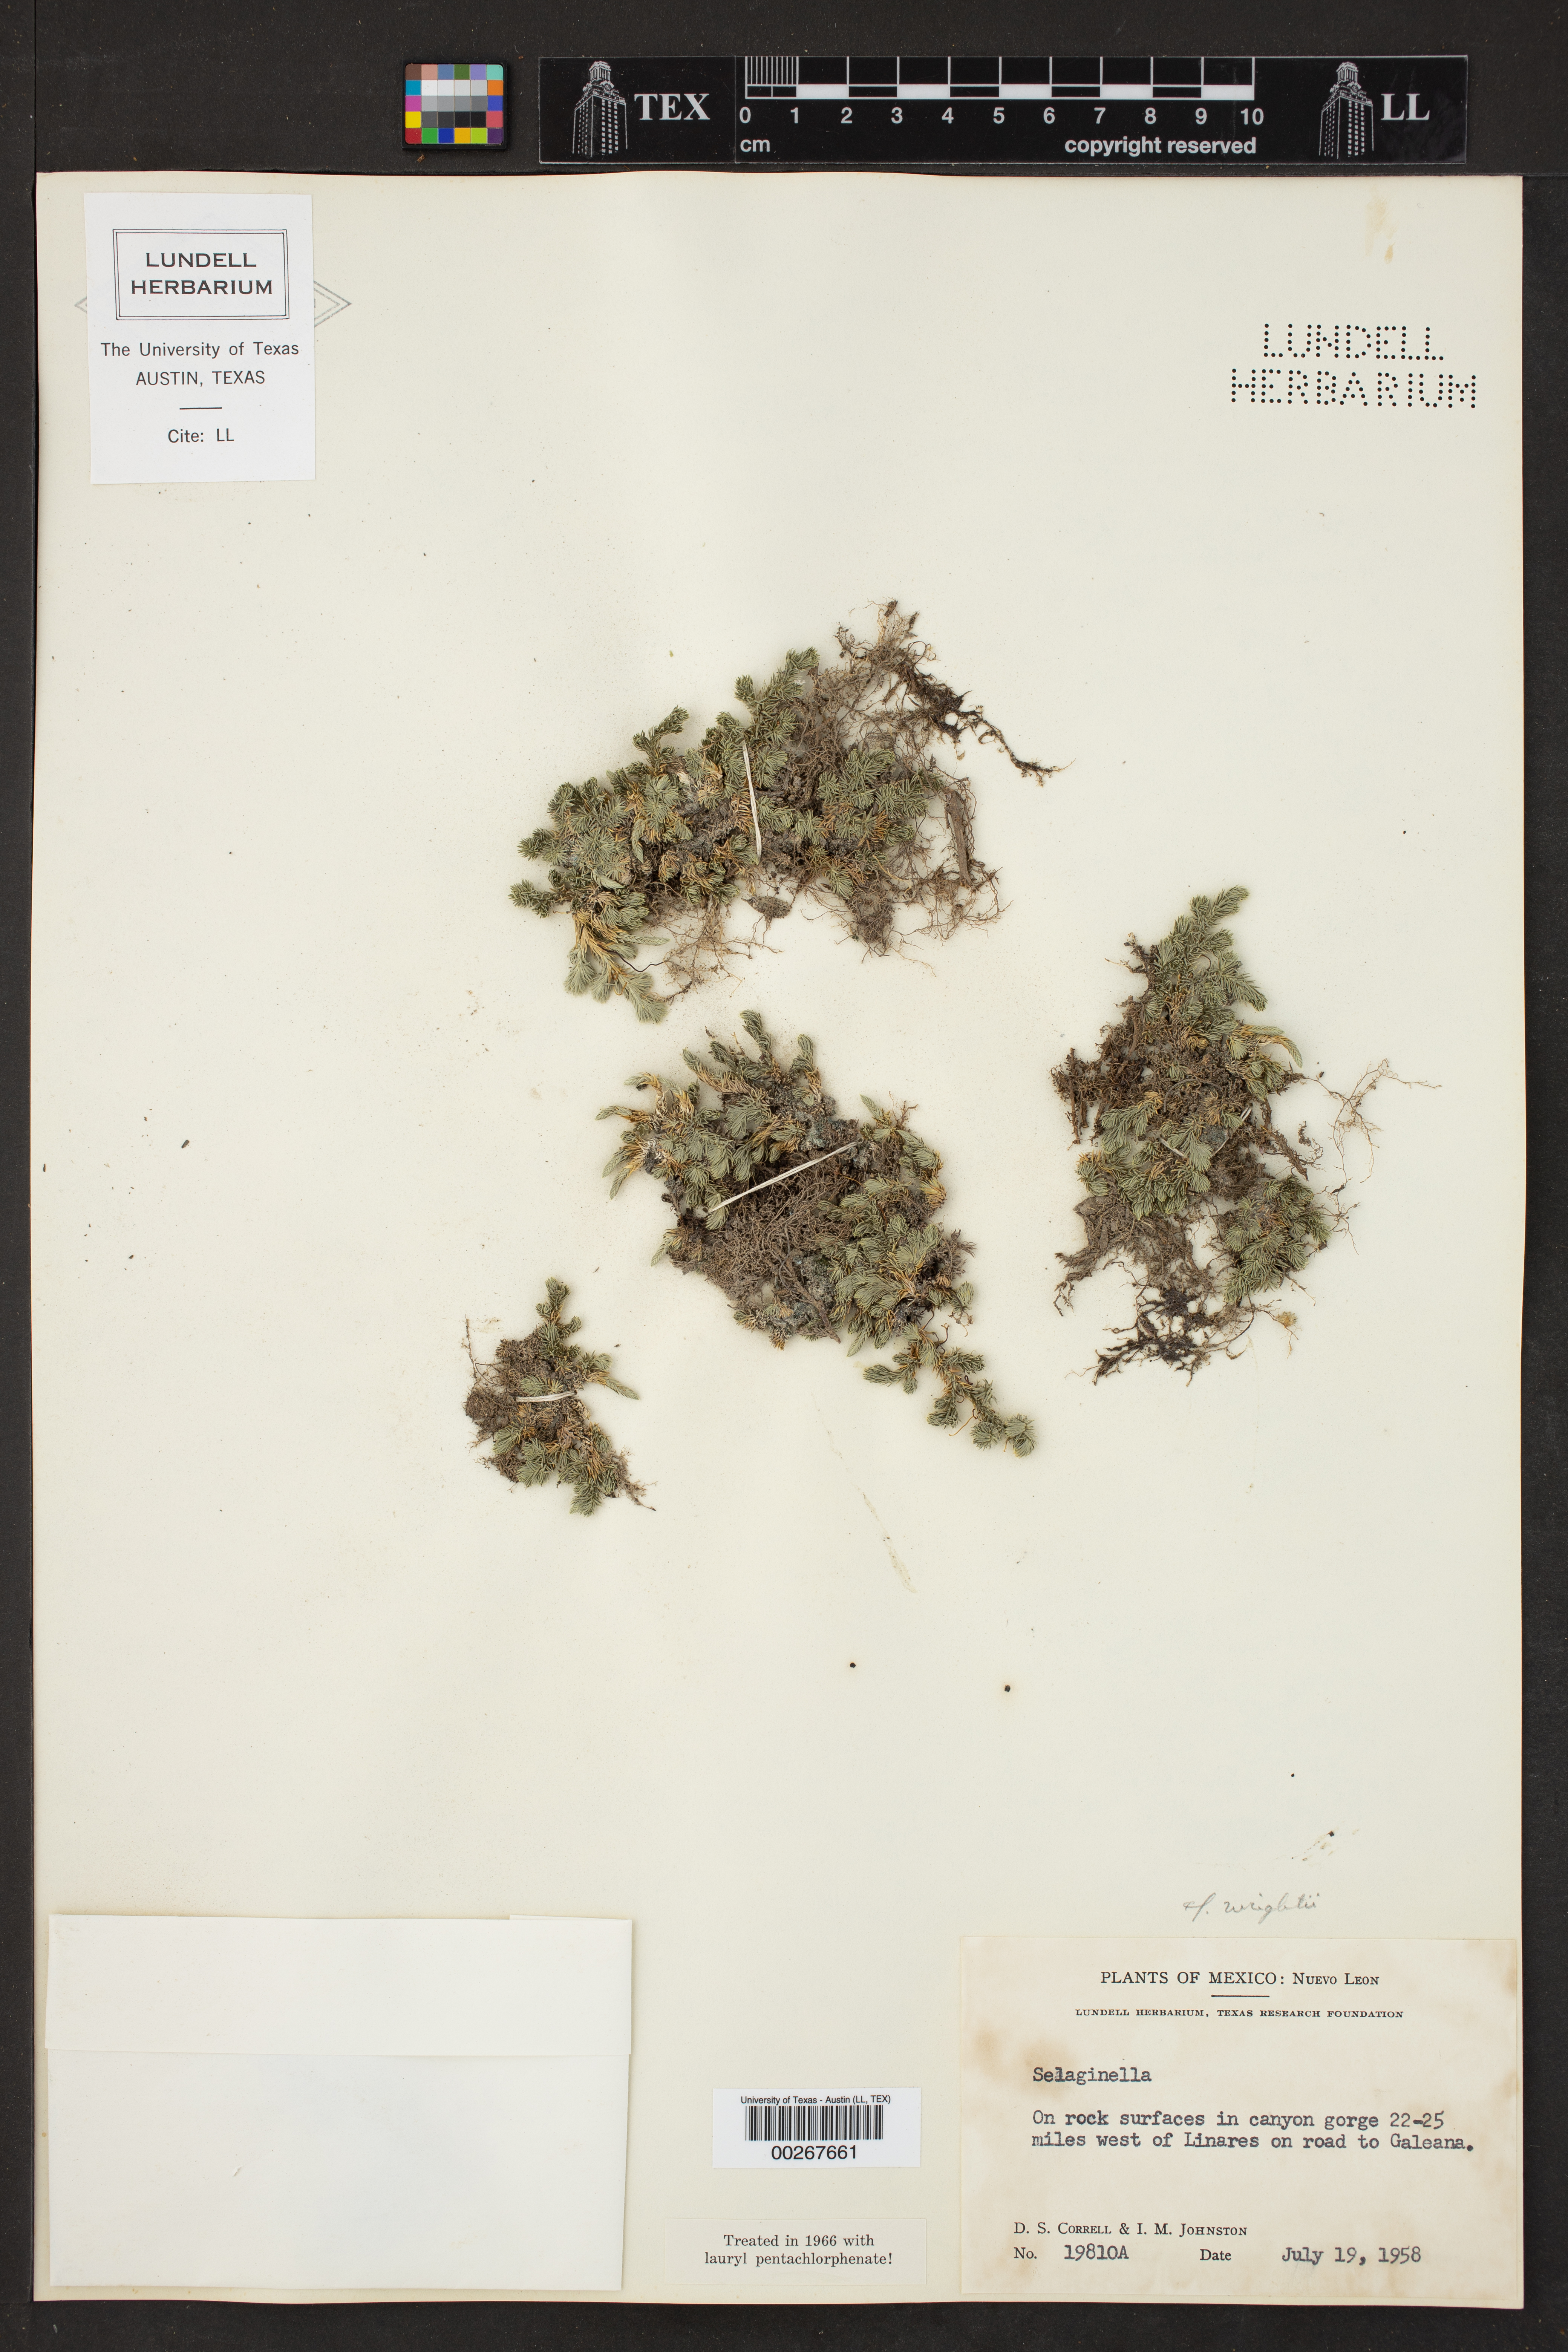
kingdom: Plantae
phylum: Tracheophyta
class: Lycopodiopsida
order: Selaginellales
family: Selaginellaceae
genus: Selaginella
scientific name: Selaginella wrightii
